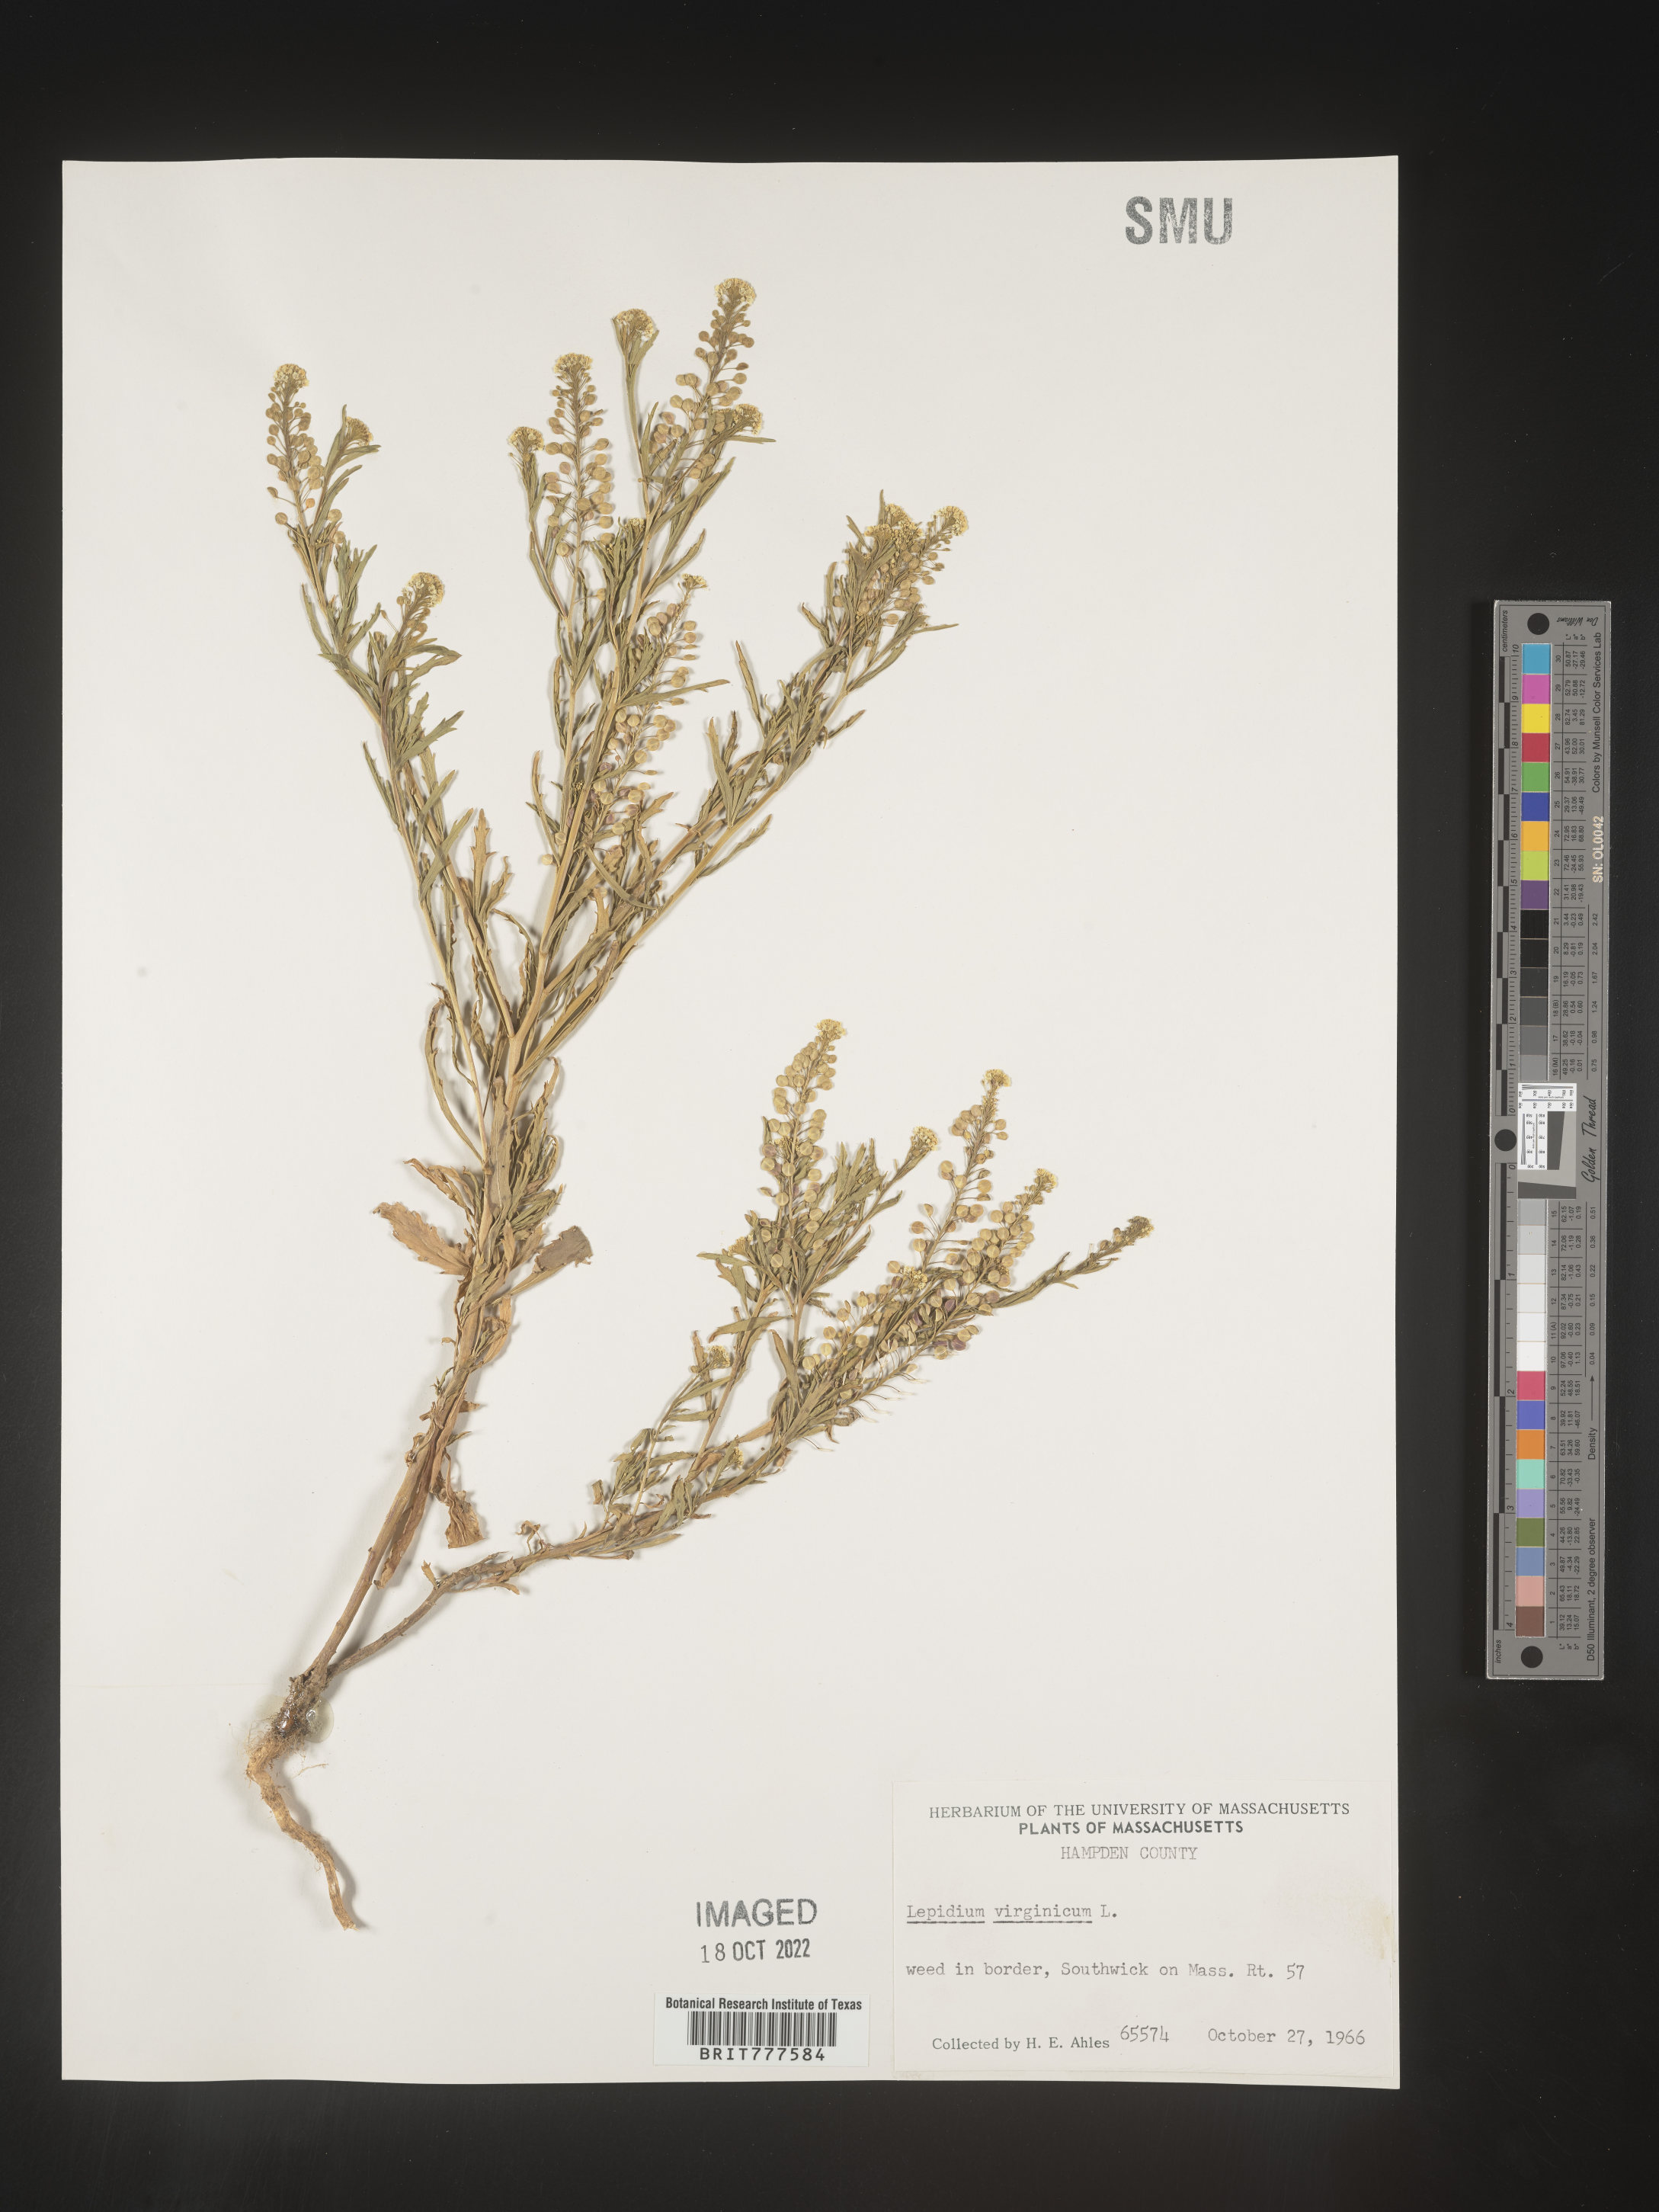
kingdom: Plantae
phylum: Tracheophyta
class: Magnoliopsida
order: Brassicales
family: Brassicaceae
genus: Lepidium
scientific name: Lepidium virginicum
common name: Least pepperwort
